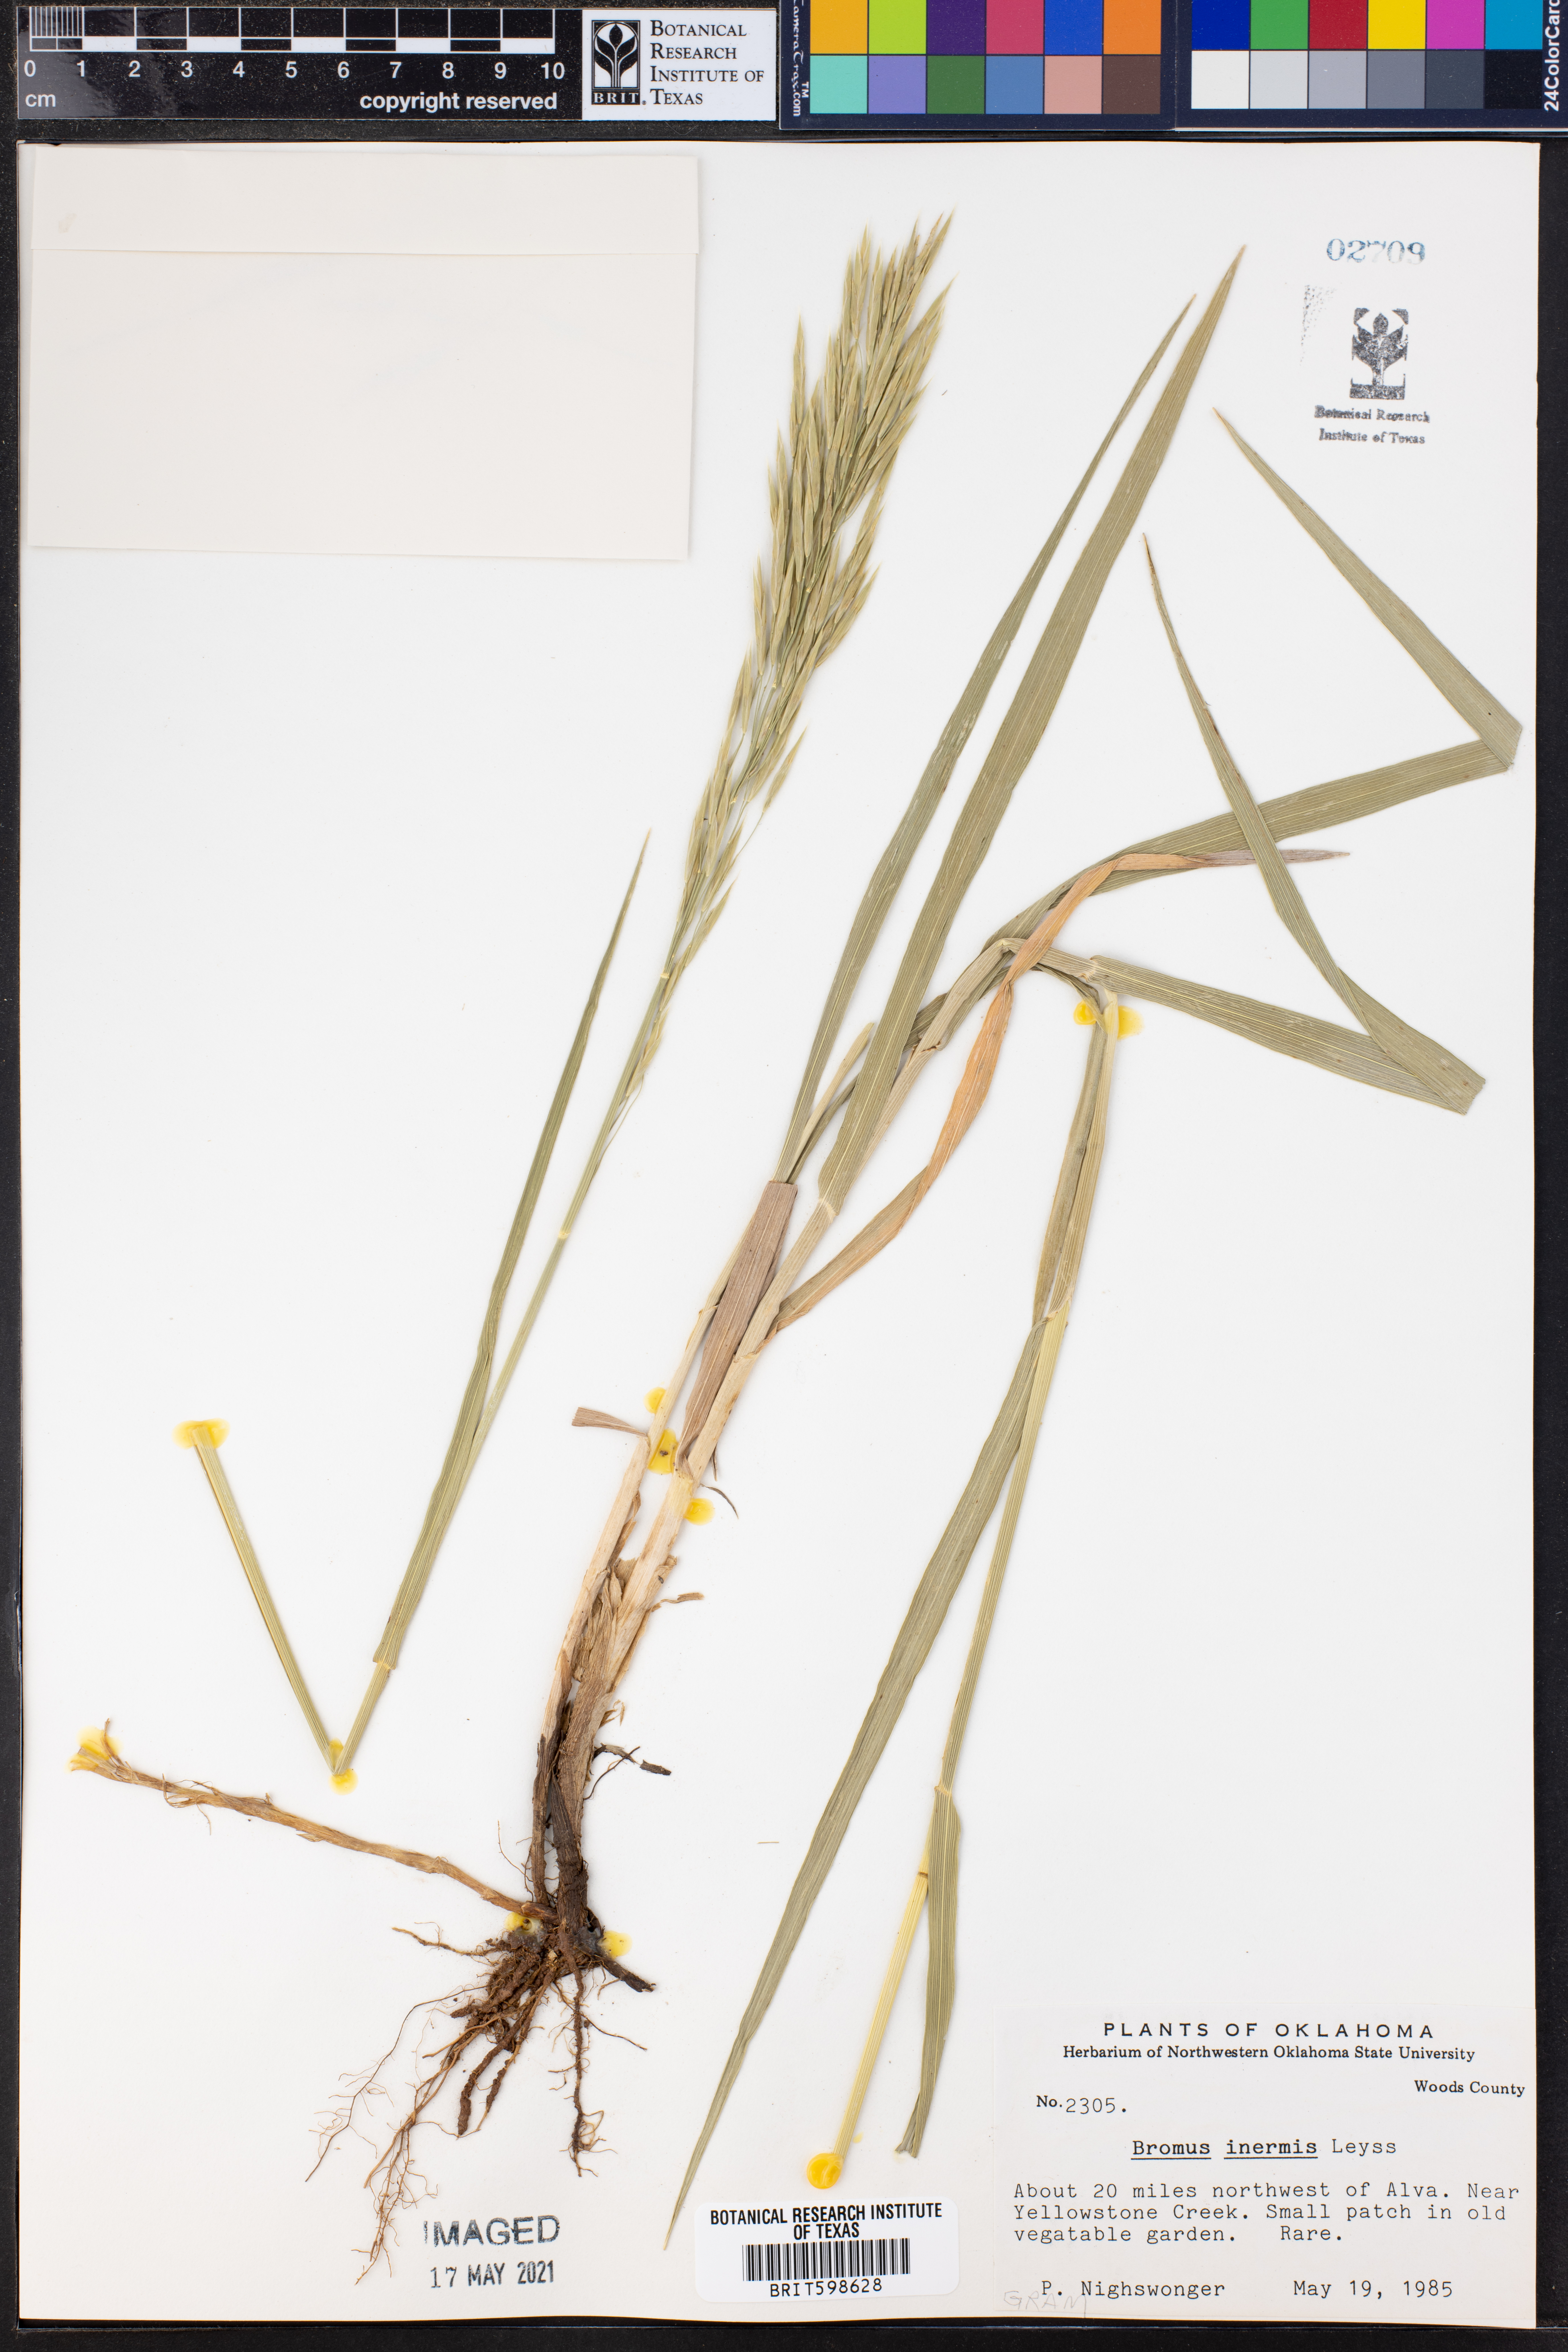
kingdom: Plantae
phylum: Tracheophyta
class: Liliopsida
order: Poales
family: Poaceae
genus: Bromus
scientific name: Bromus inermis
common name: Smooth brome
